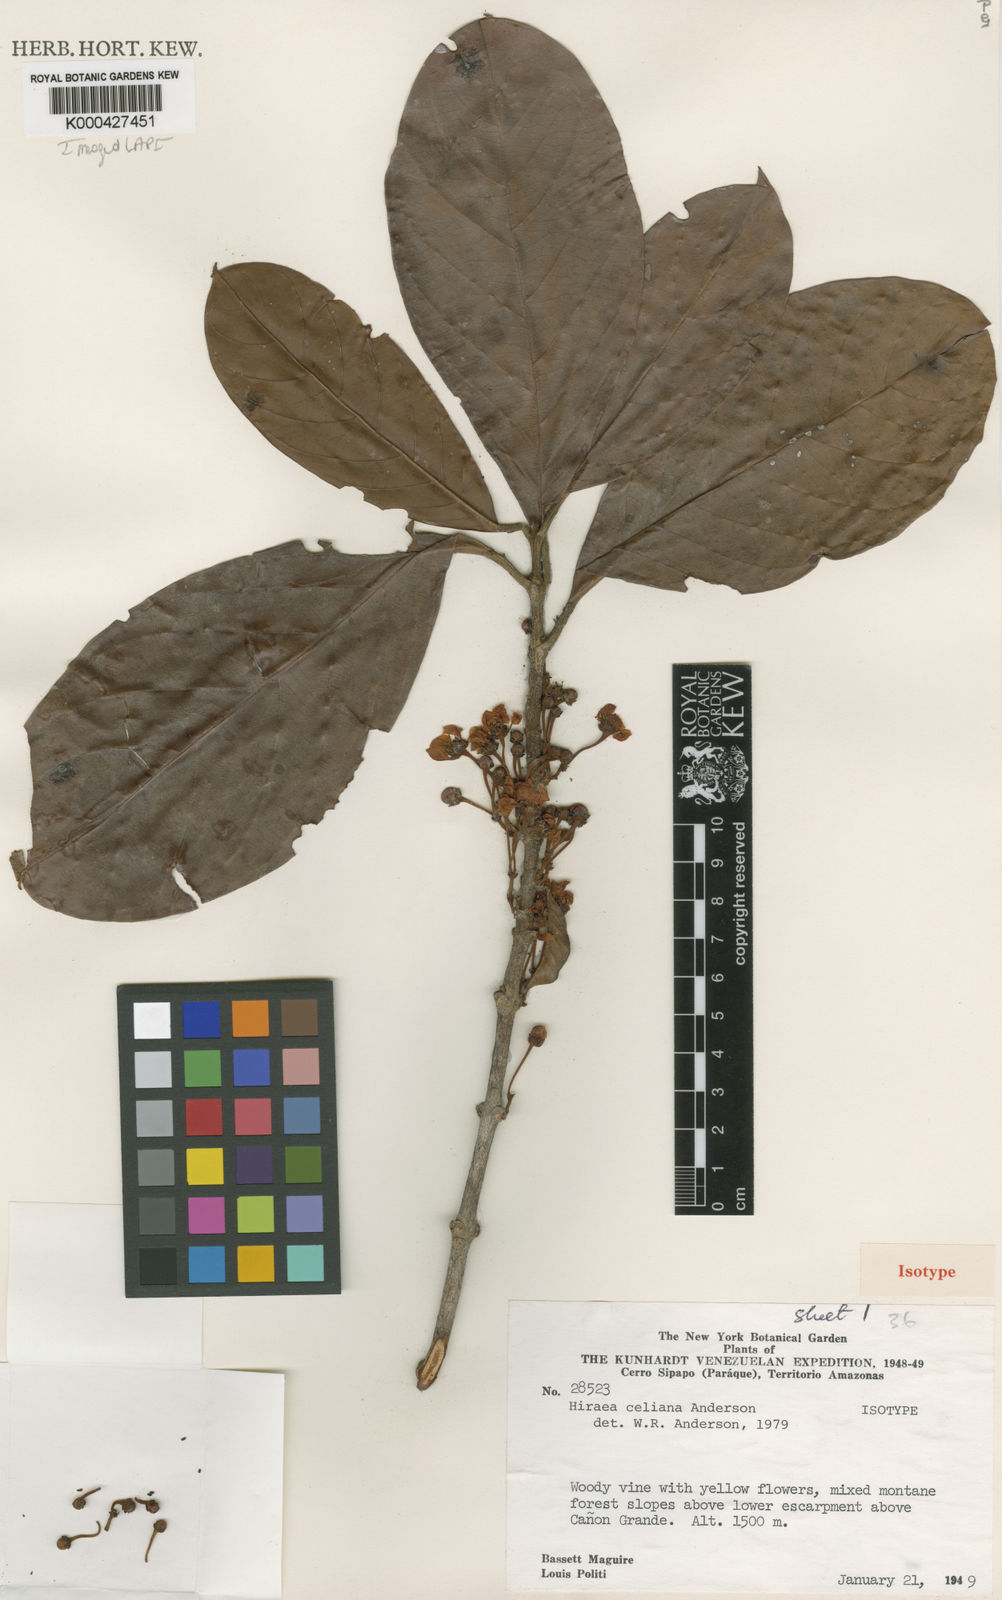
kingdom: Plantae
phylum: Tracheophyta
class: Magnoliopsida
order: Malpighiales
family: Malpighiaceae
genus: Hiraea
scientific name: Hiraea celiana
